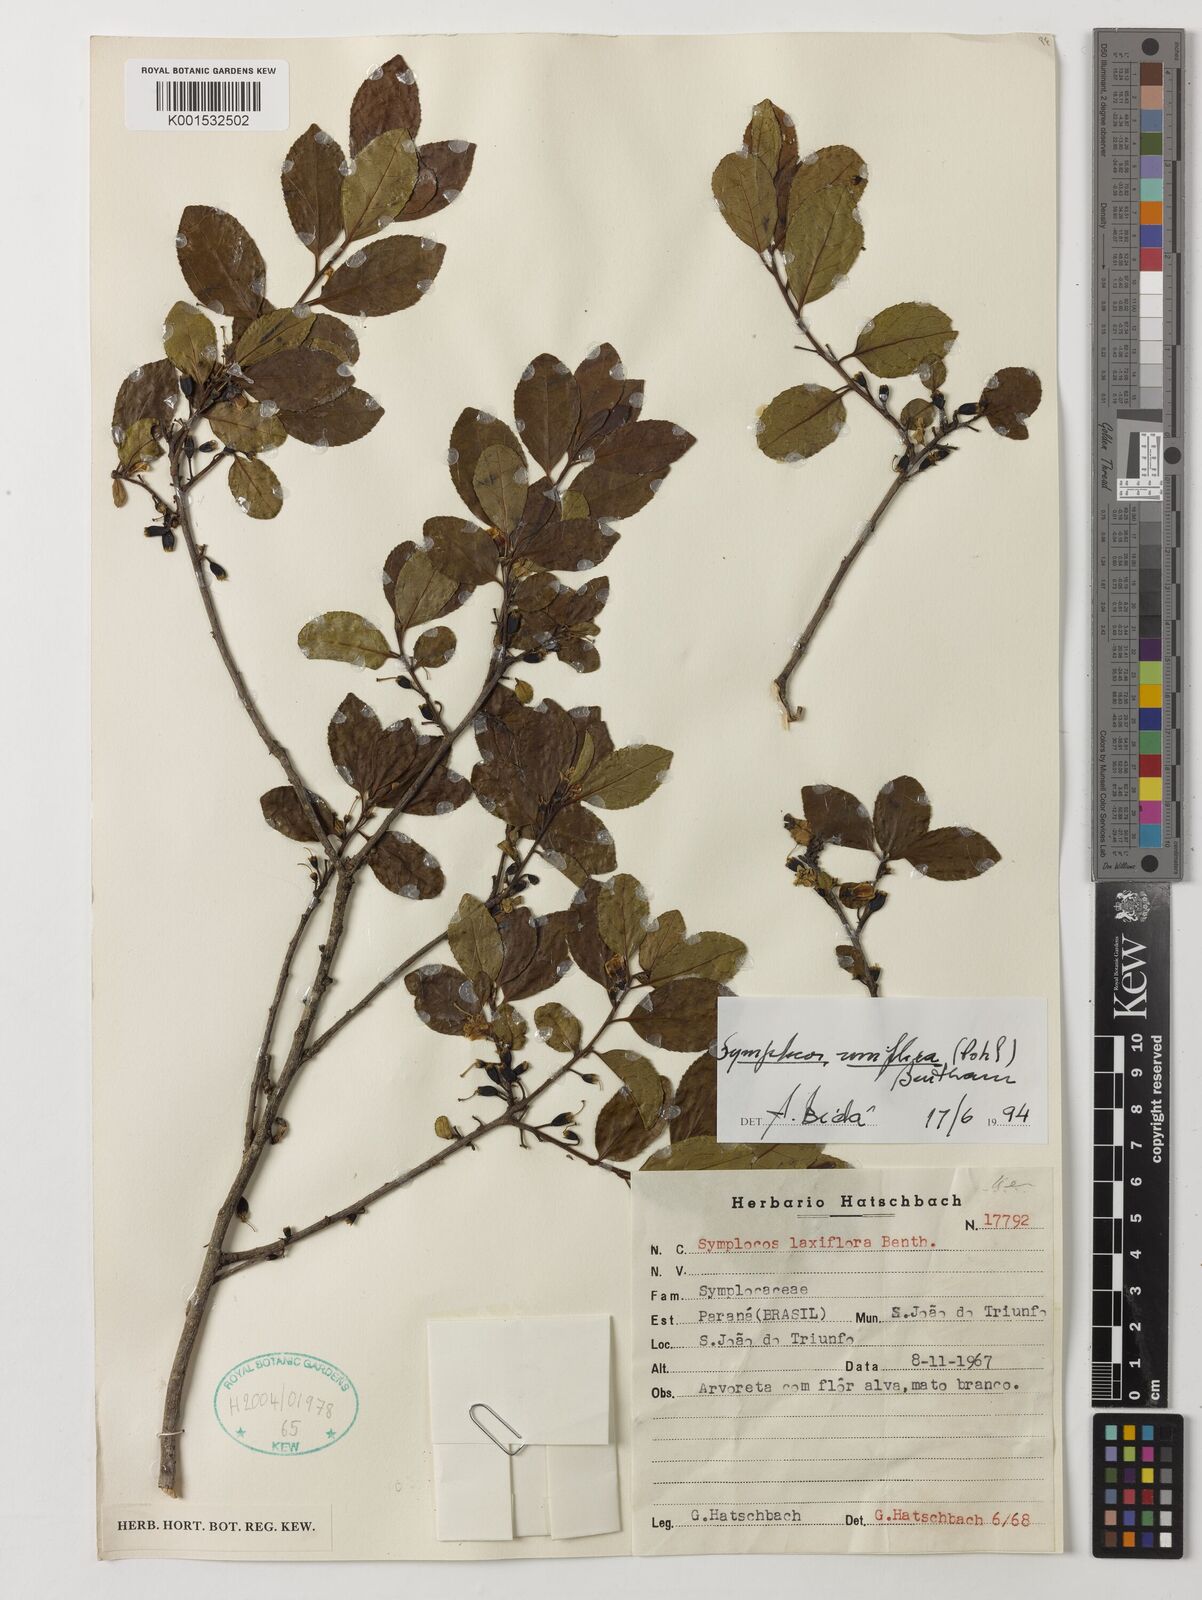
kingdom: Plantae
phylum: Tracheophyta
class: Magnoliopsida
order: Ericales
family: Symplocaceae
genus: Symplocos
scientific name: Symplocos uniflora
